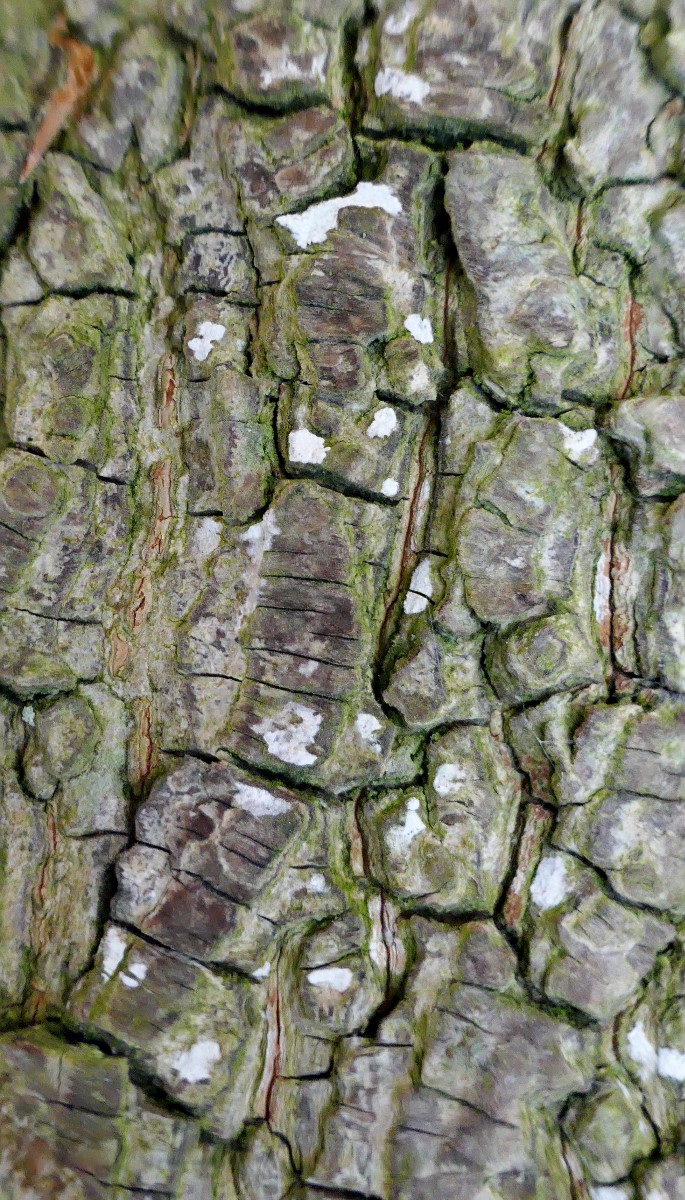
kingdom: Fungi
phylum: Basidiomycota
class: Agaricomycetes
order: Agaricales
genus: Dendrothele
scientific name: Dendrothele acerina
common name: navr-kalkplet
